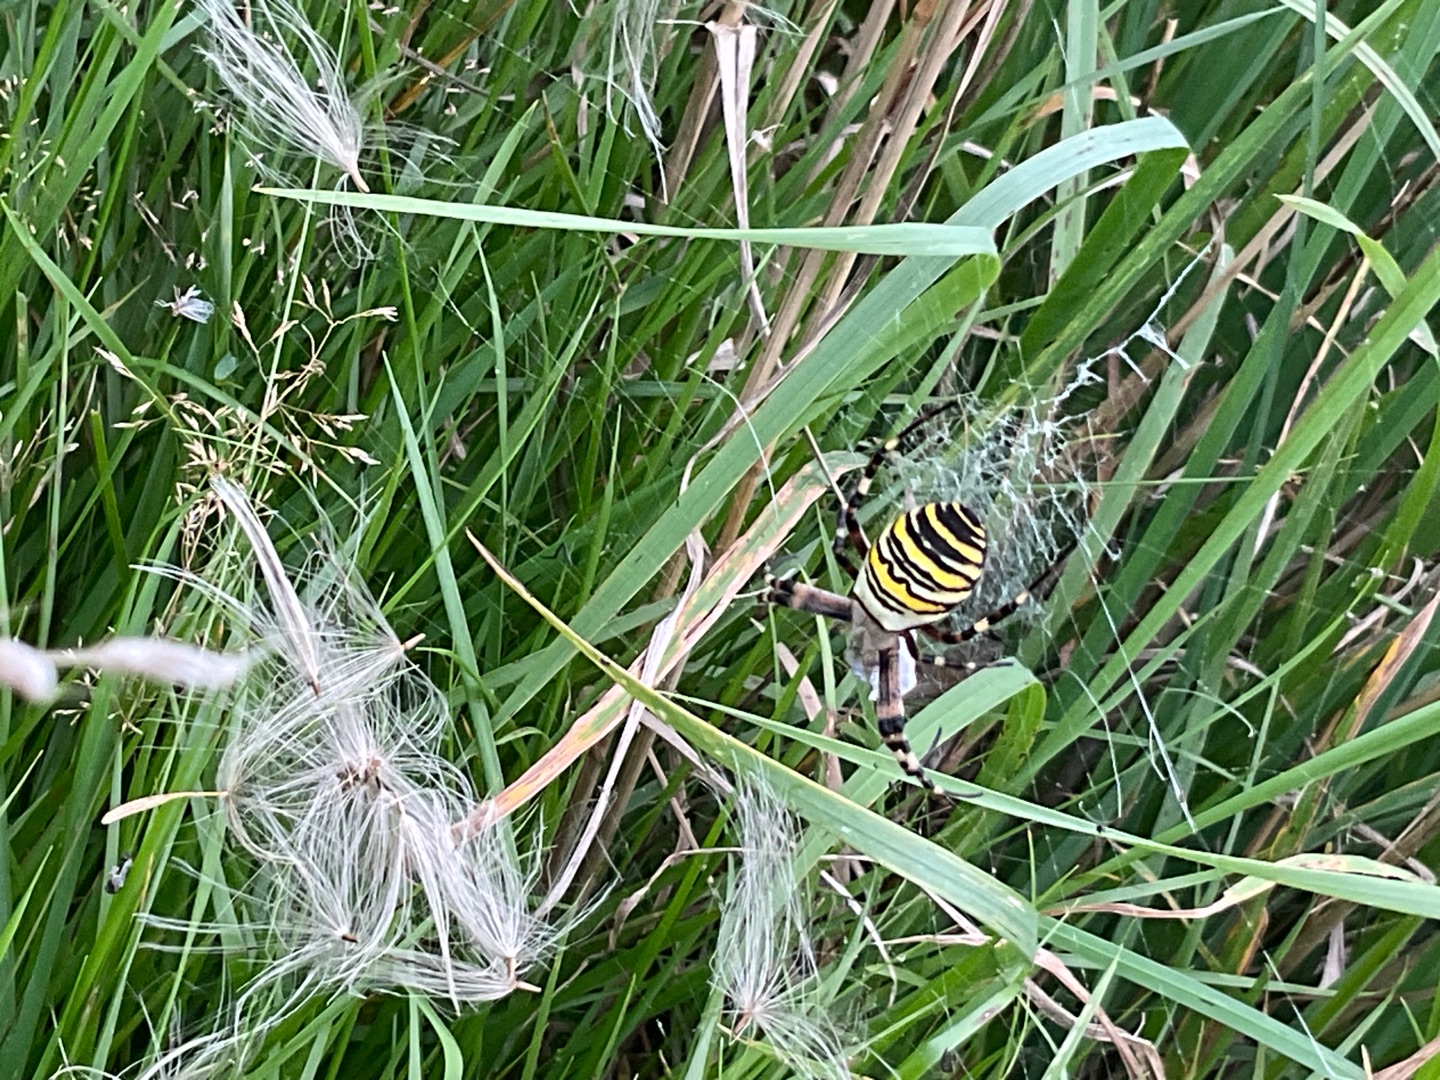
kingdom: Animalia
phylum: Arthropoda
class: Arachnida
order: Araneae
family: Araneidae
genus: Argiope
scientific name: Argiope bruennichi
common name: Hvepseedderkop
